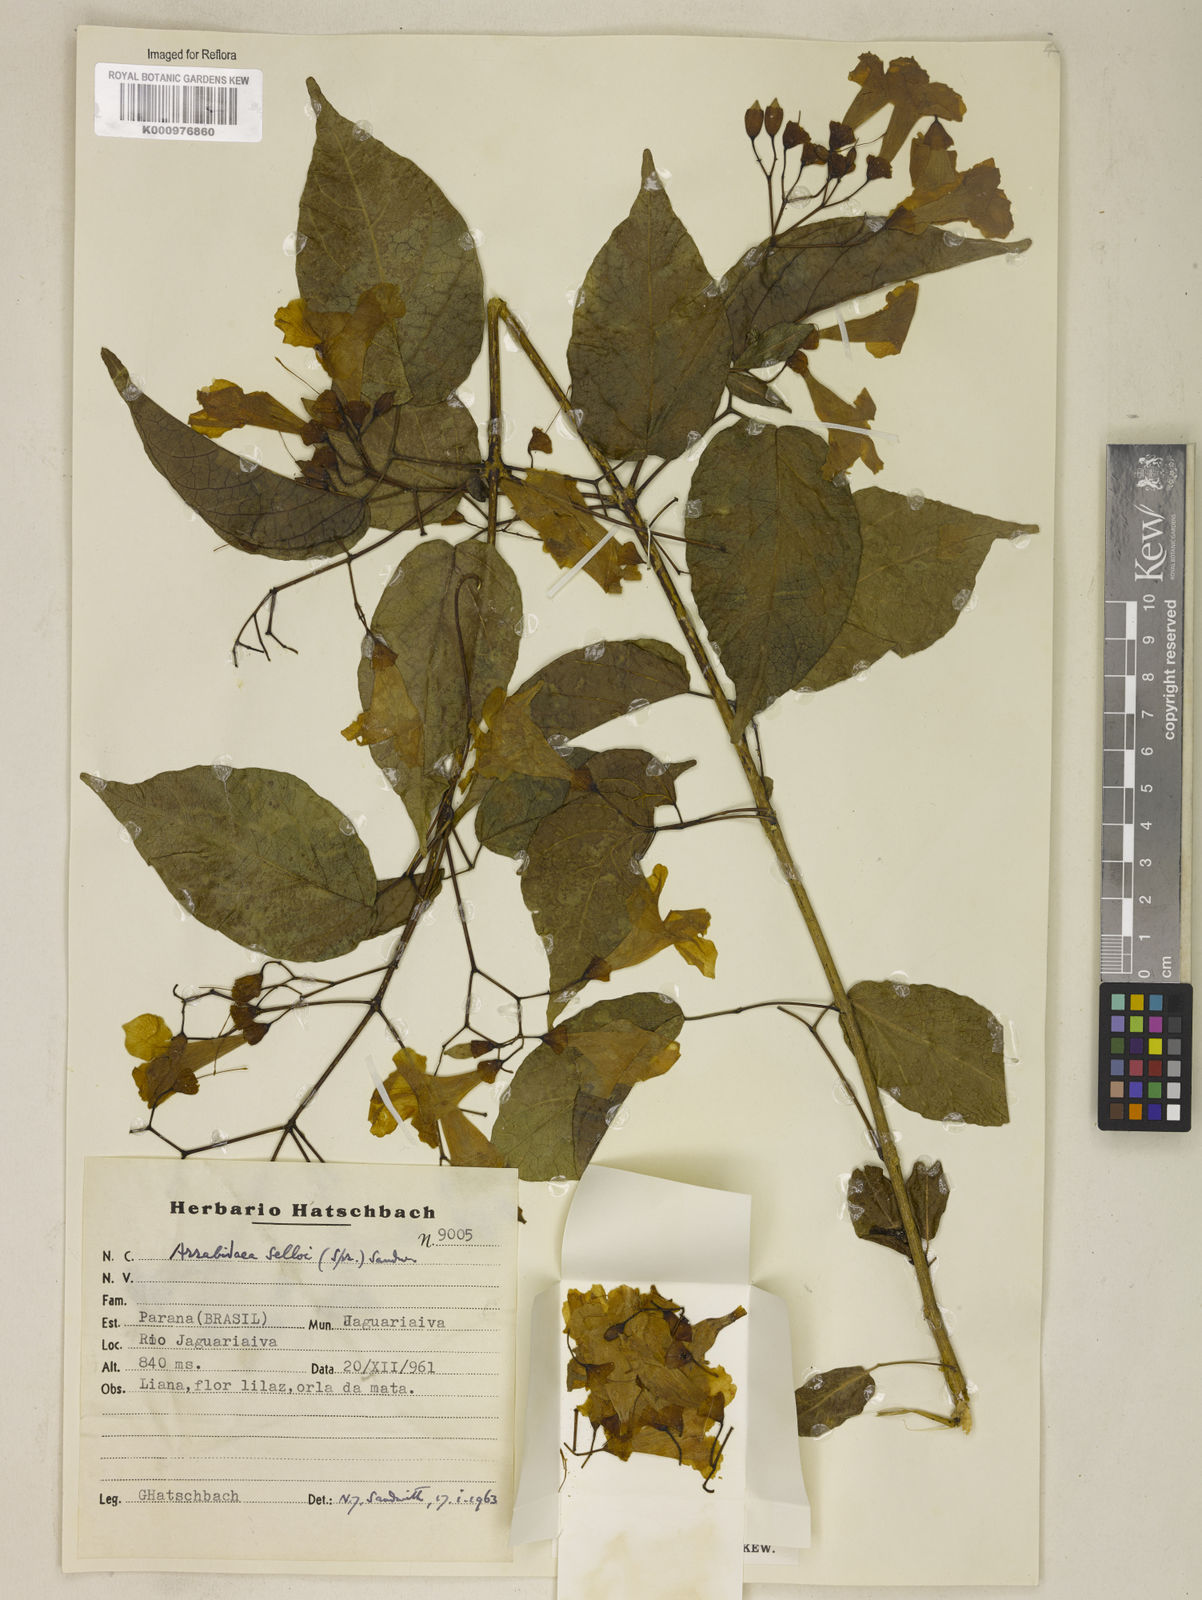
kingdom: Plantae
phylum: Tracheophyta
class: Magnoliopsida
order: Lamiales
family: Bignoniaceae
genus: Tanaecium
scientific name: Tanaecium selloi
